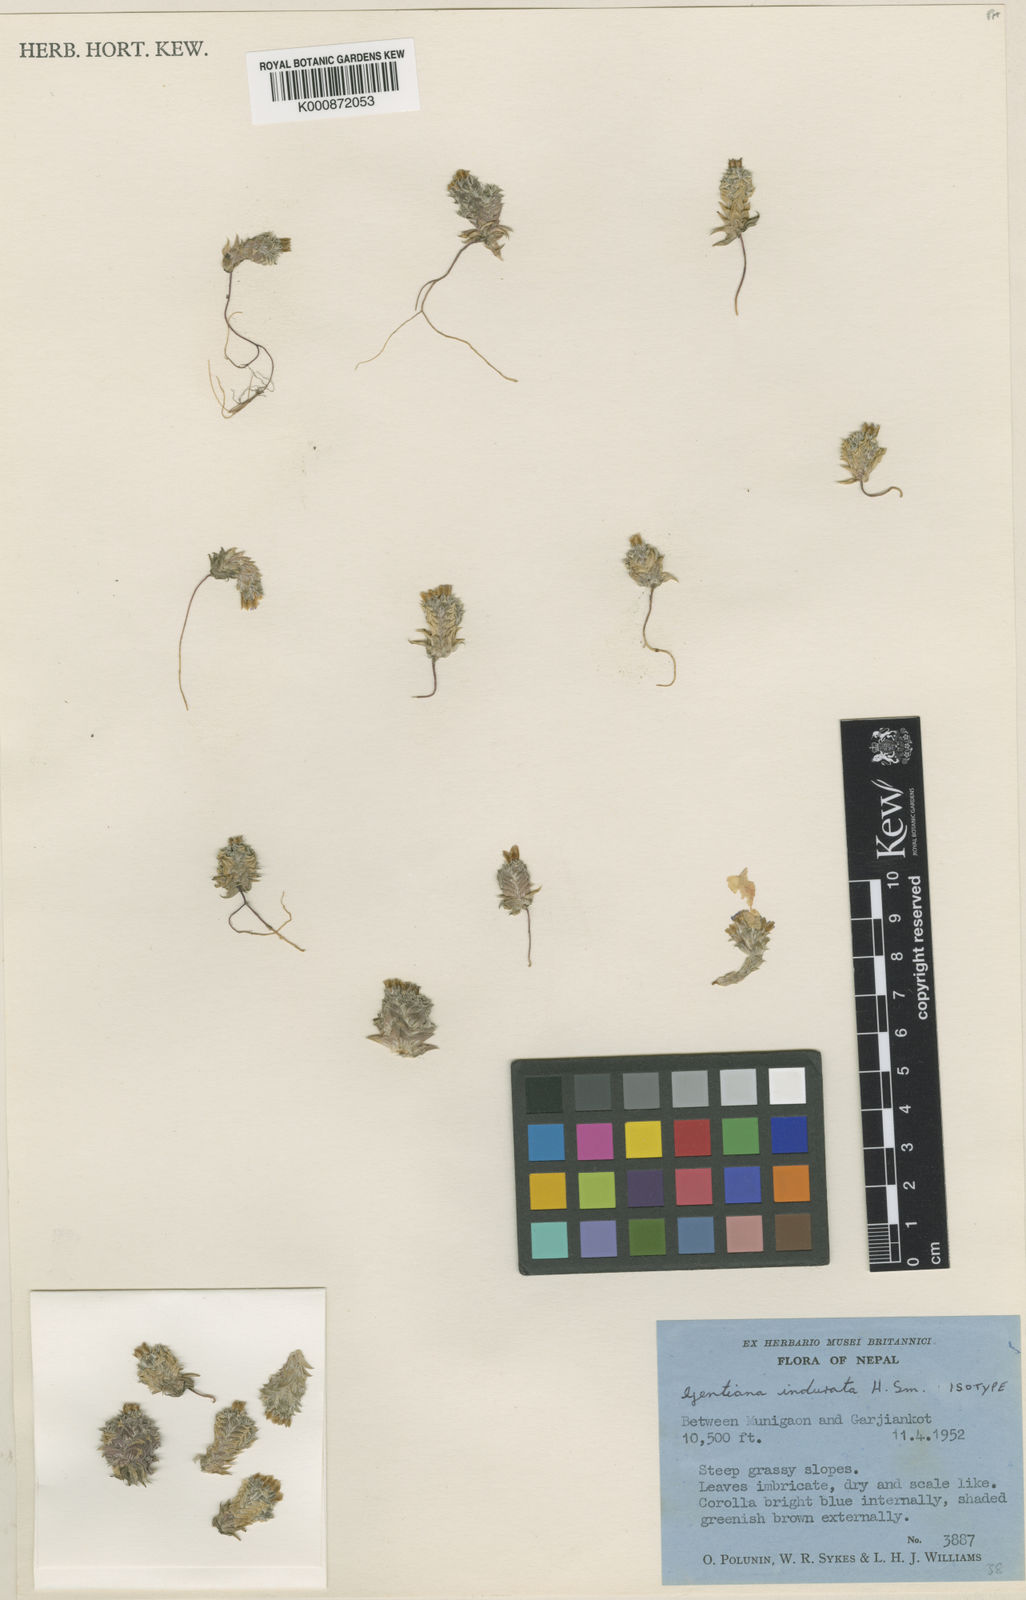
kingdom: Plantae
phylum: Tracheophyta
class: Magnoliopsida
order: Gentianales
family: Gentianaceae
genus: Gentiana
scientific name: Gentiana argentea
